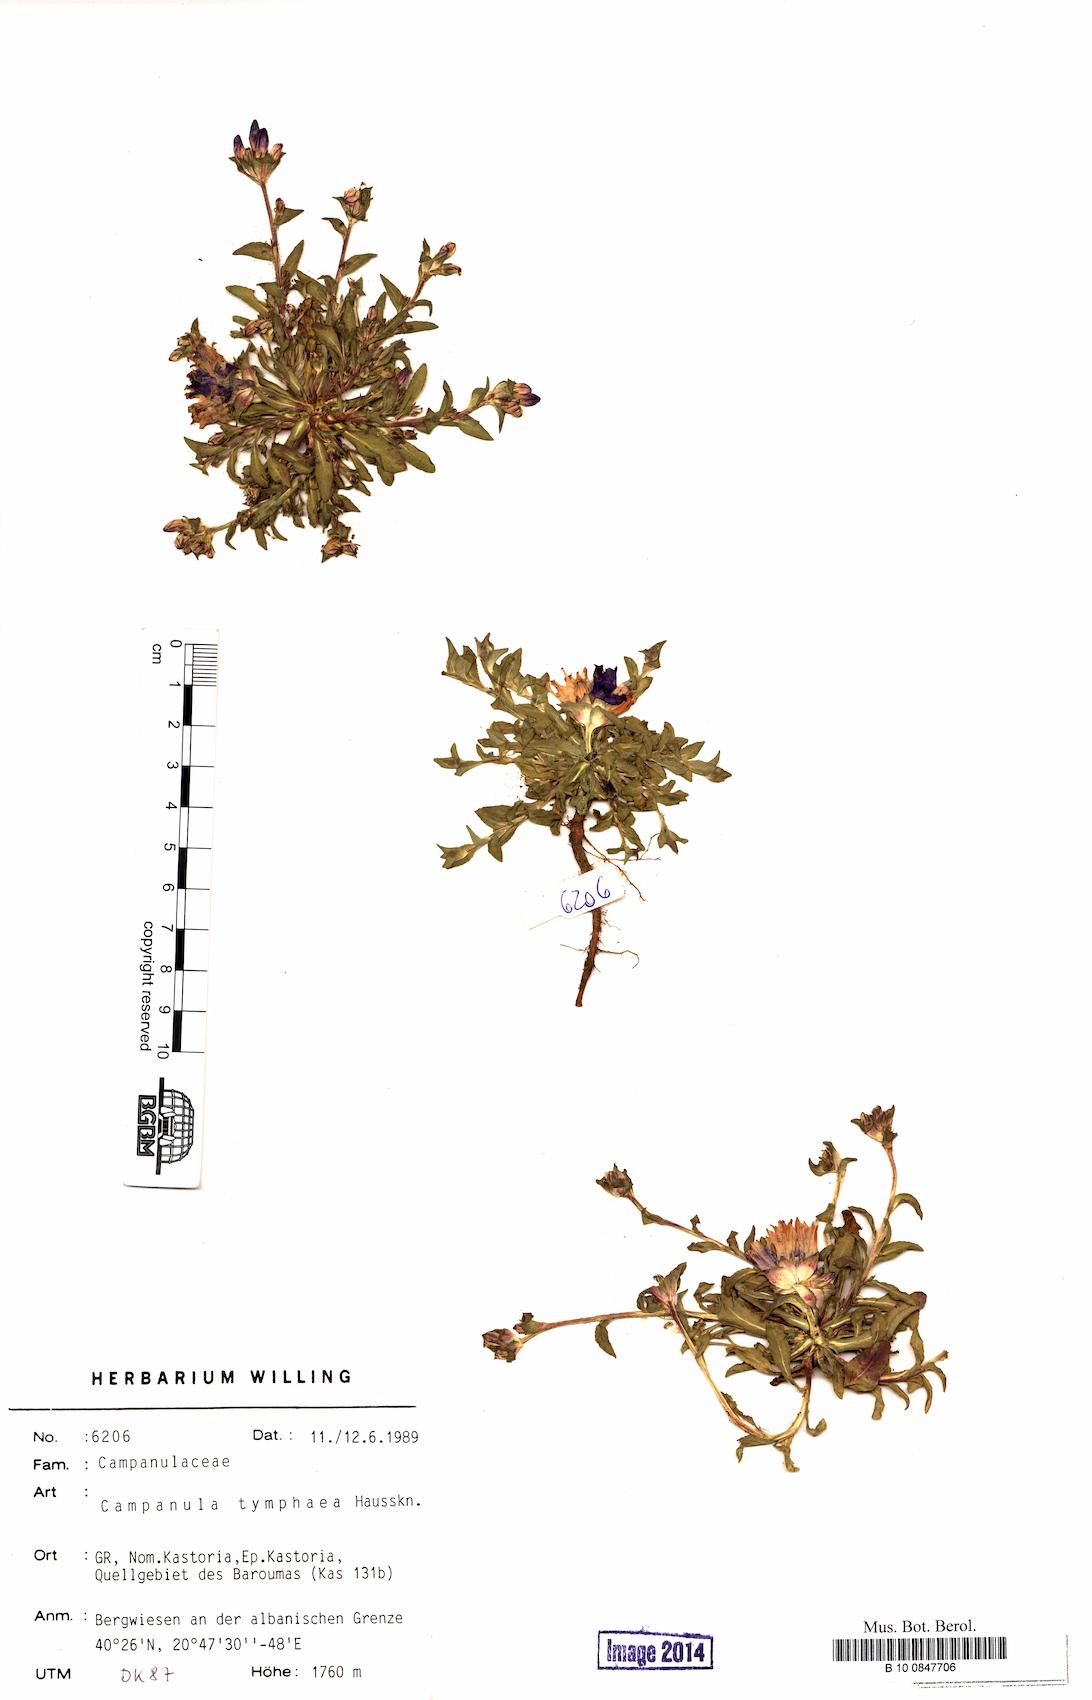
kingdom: Plantae
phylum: Tracheophyta
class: Magnoliopsida
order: Asterales
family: Campanulaceae
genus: Campanula
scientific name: Campanula tymphaea
